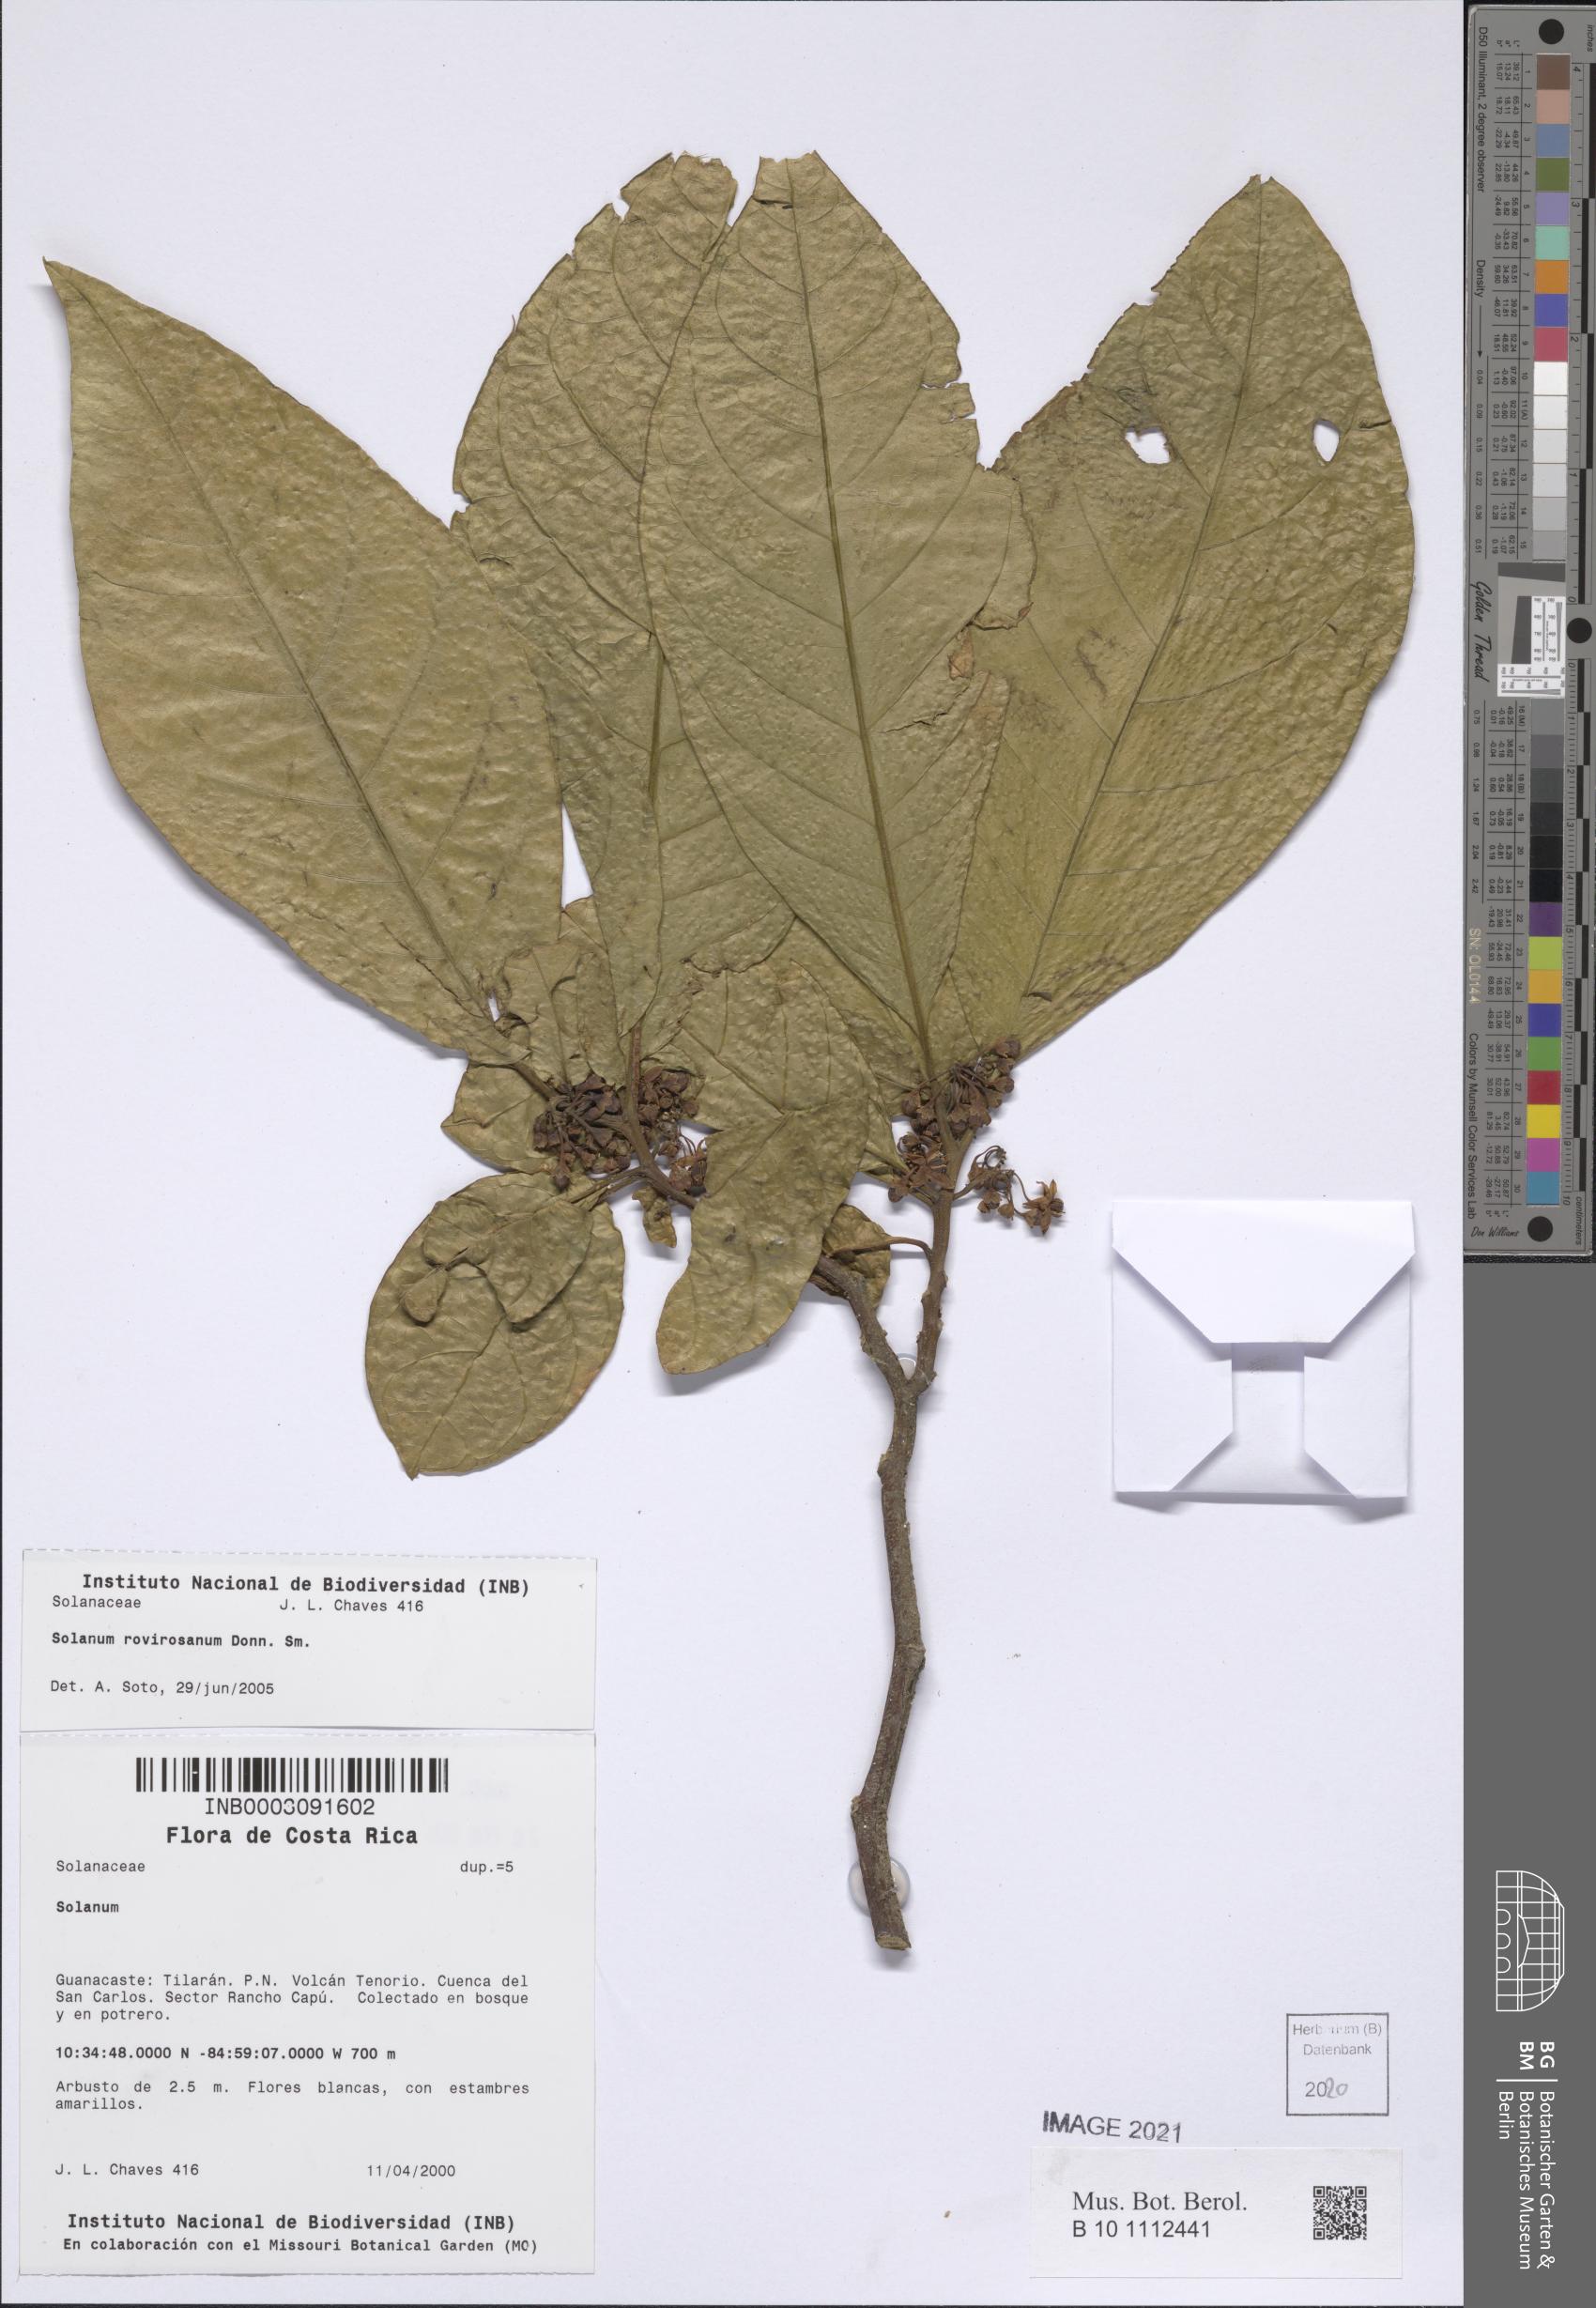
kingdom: Plantae
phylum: Tracheophyta
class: Magnoliopsida
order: Solanales
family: Solanaceae
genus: Solanum
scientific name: Solanum rovirosanum
